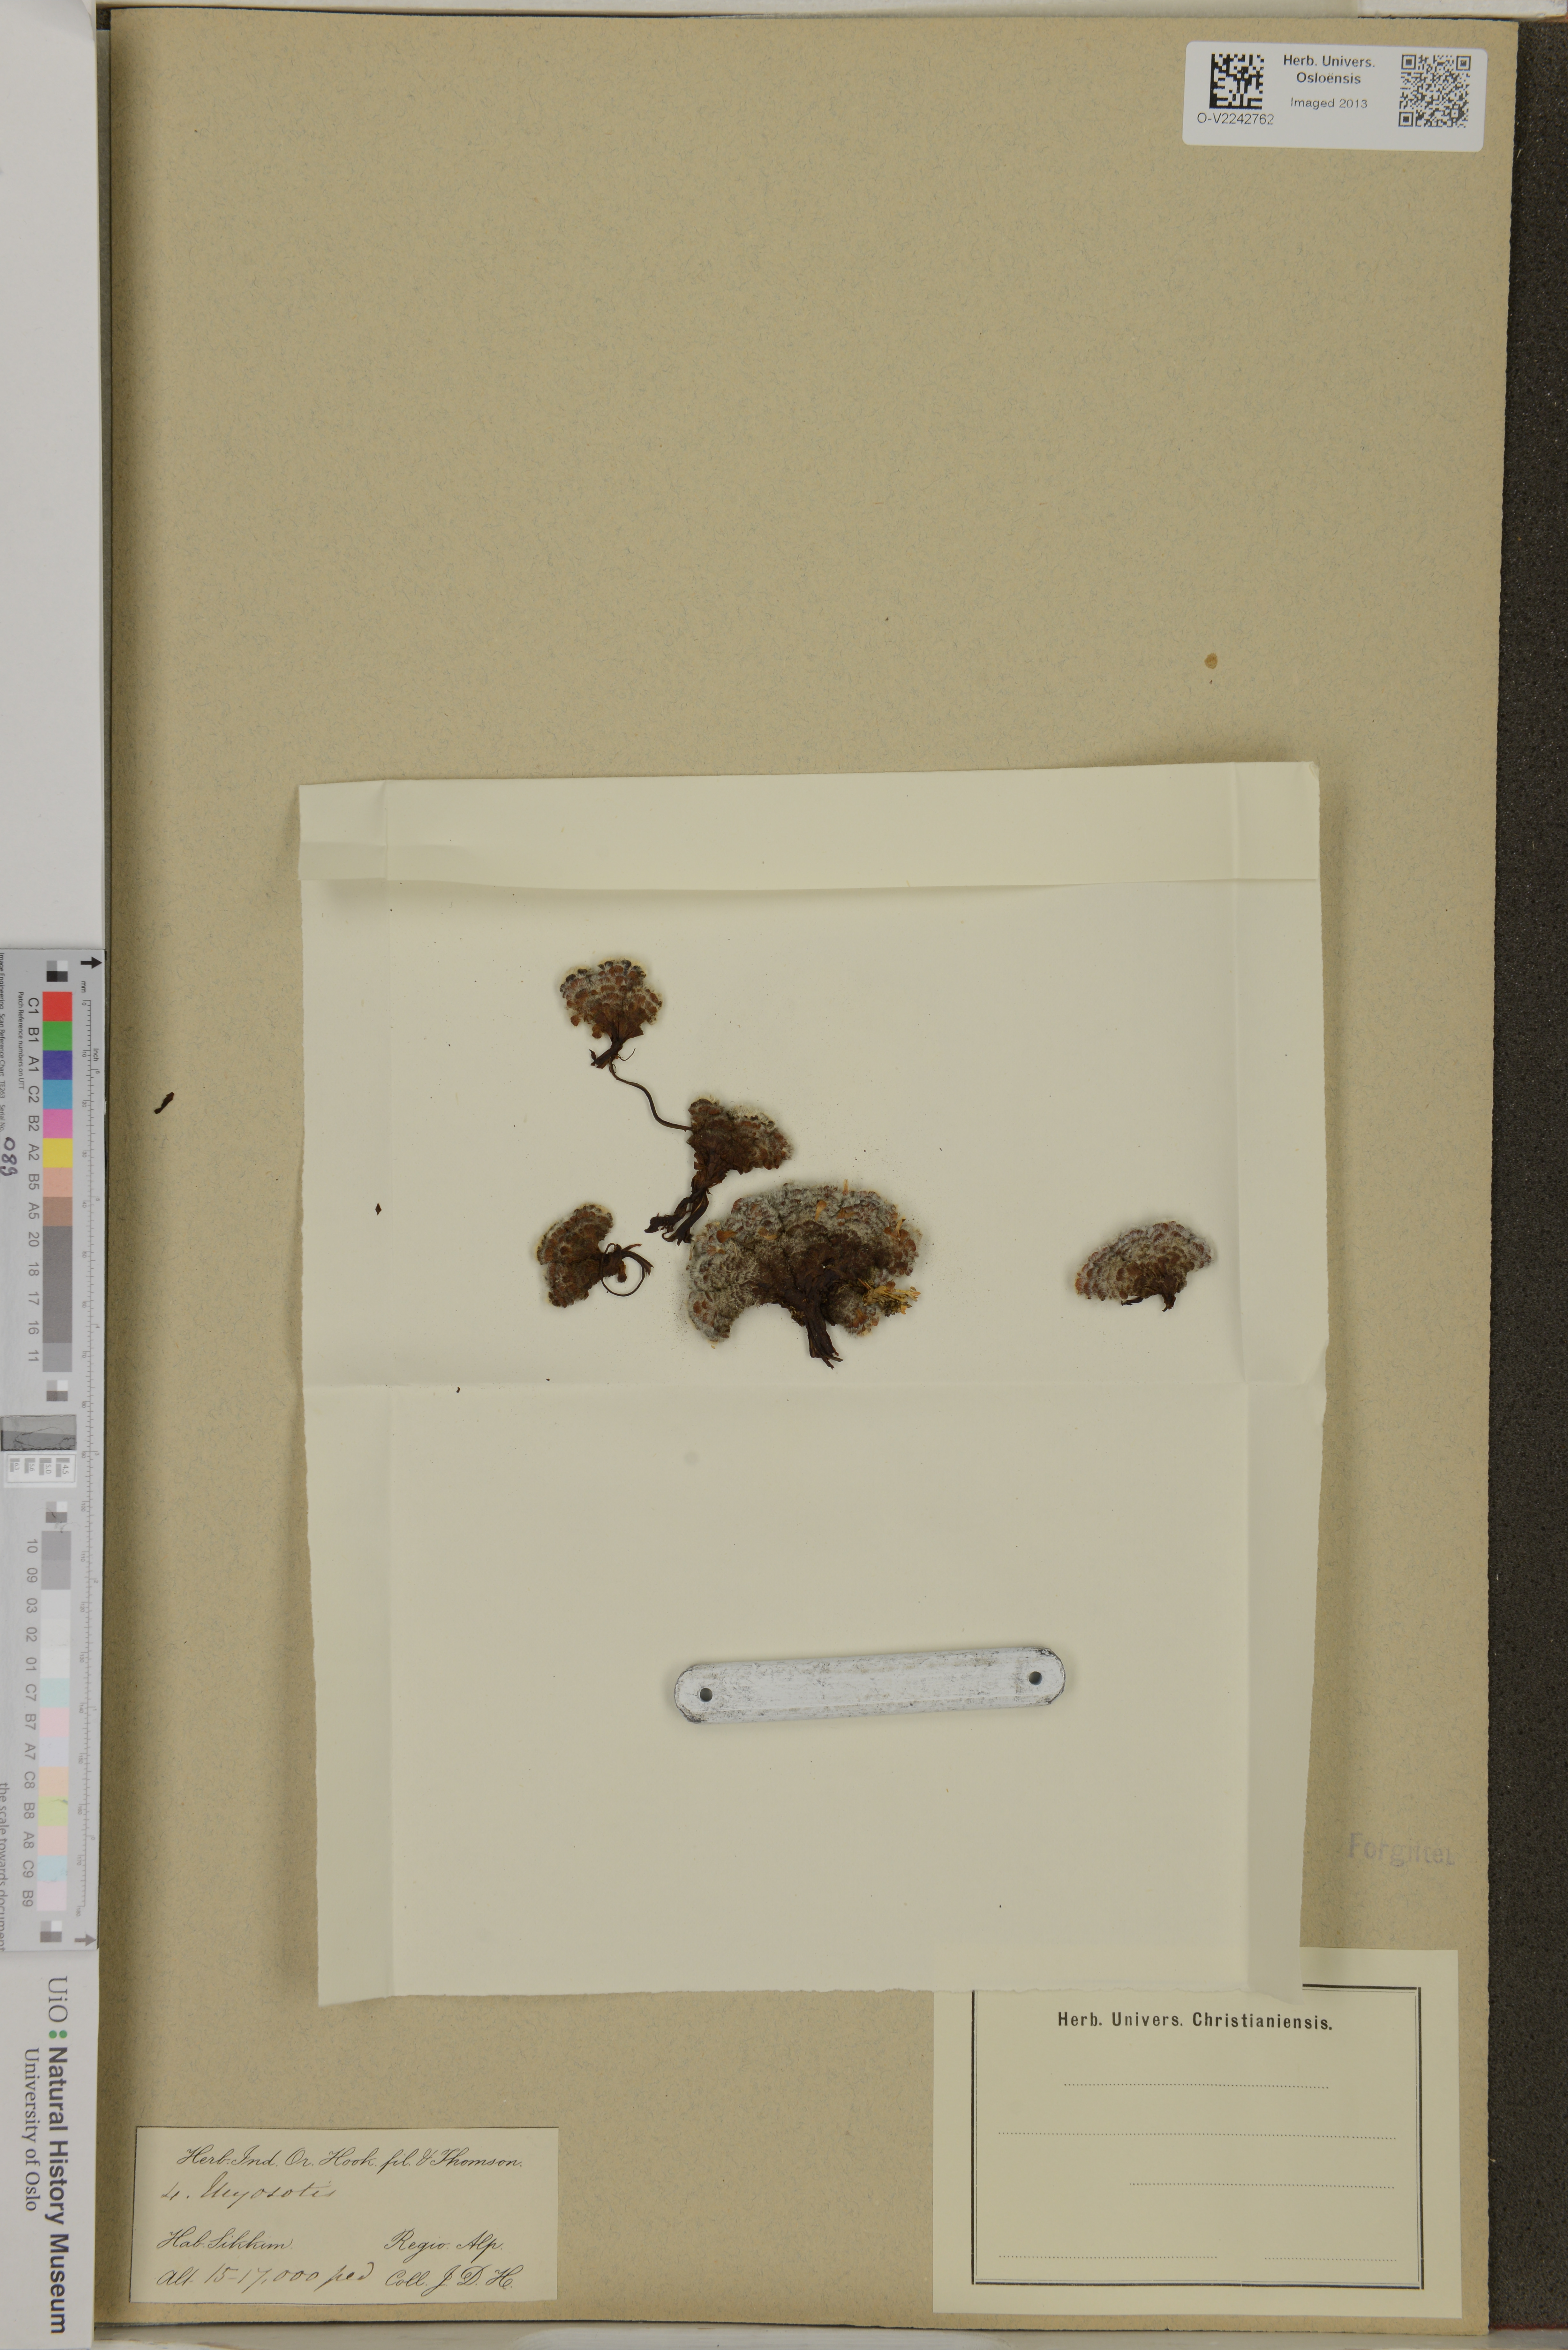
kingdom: Plantae
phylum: Tracheophyta
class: Magnoliopsida
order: Boraginales
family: Boraginaceae
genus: Myosotis
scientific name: Myosotis
